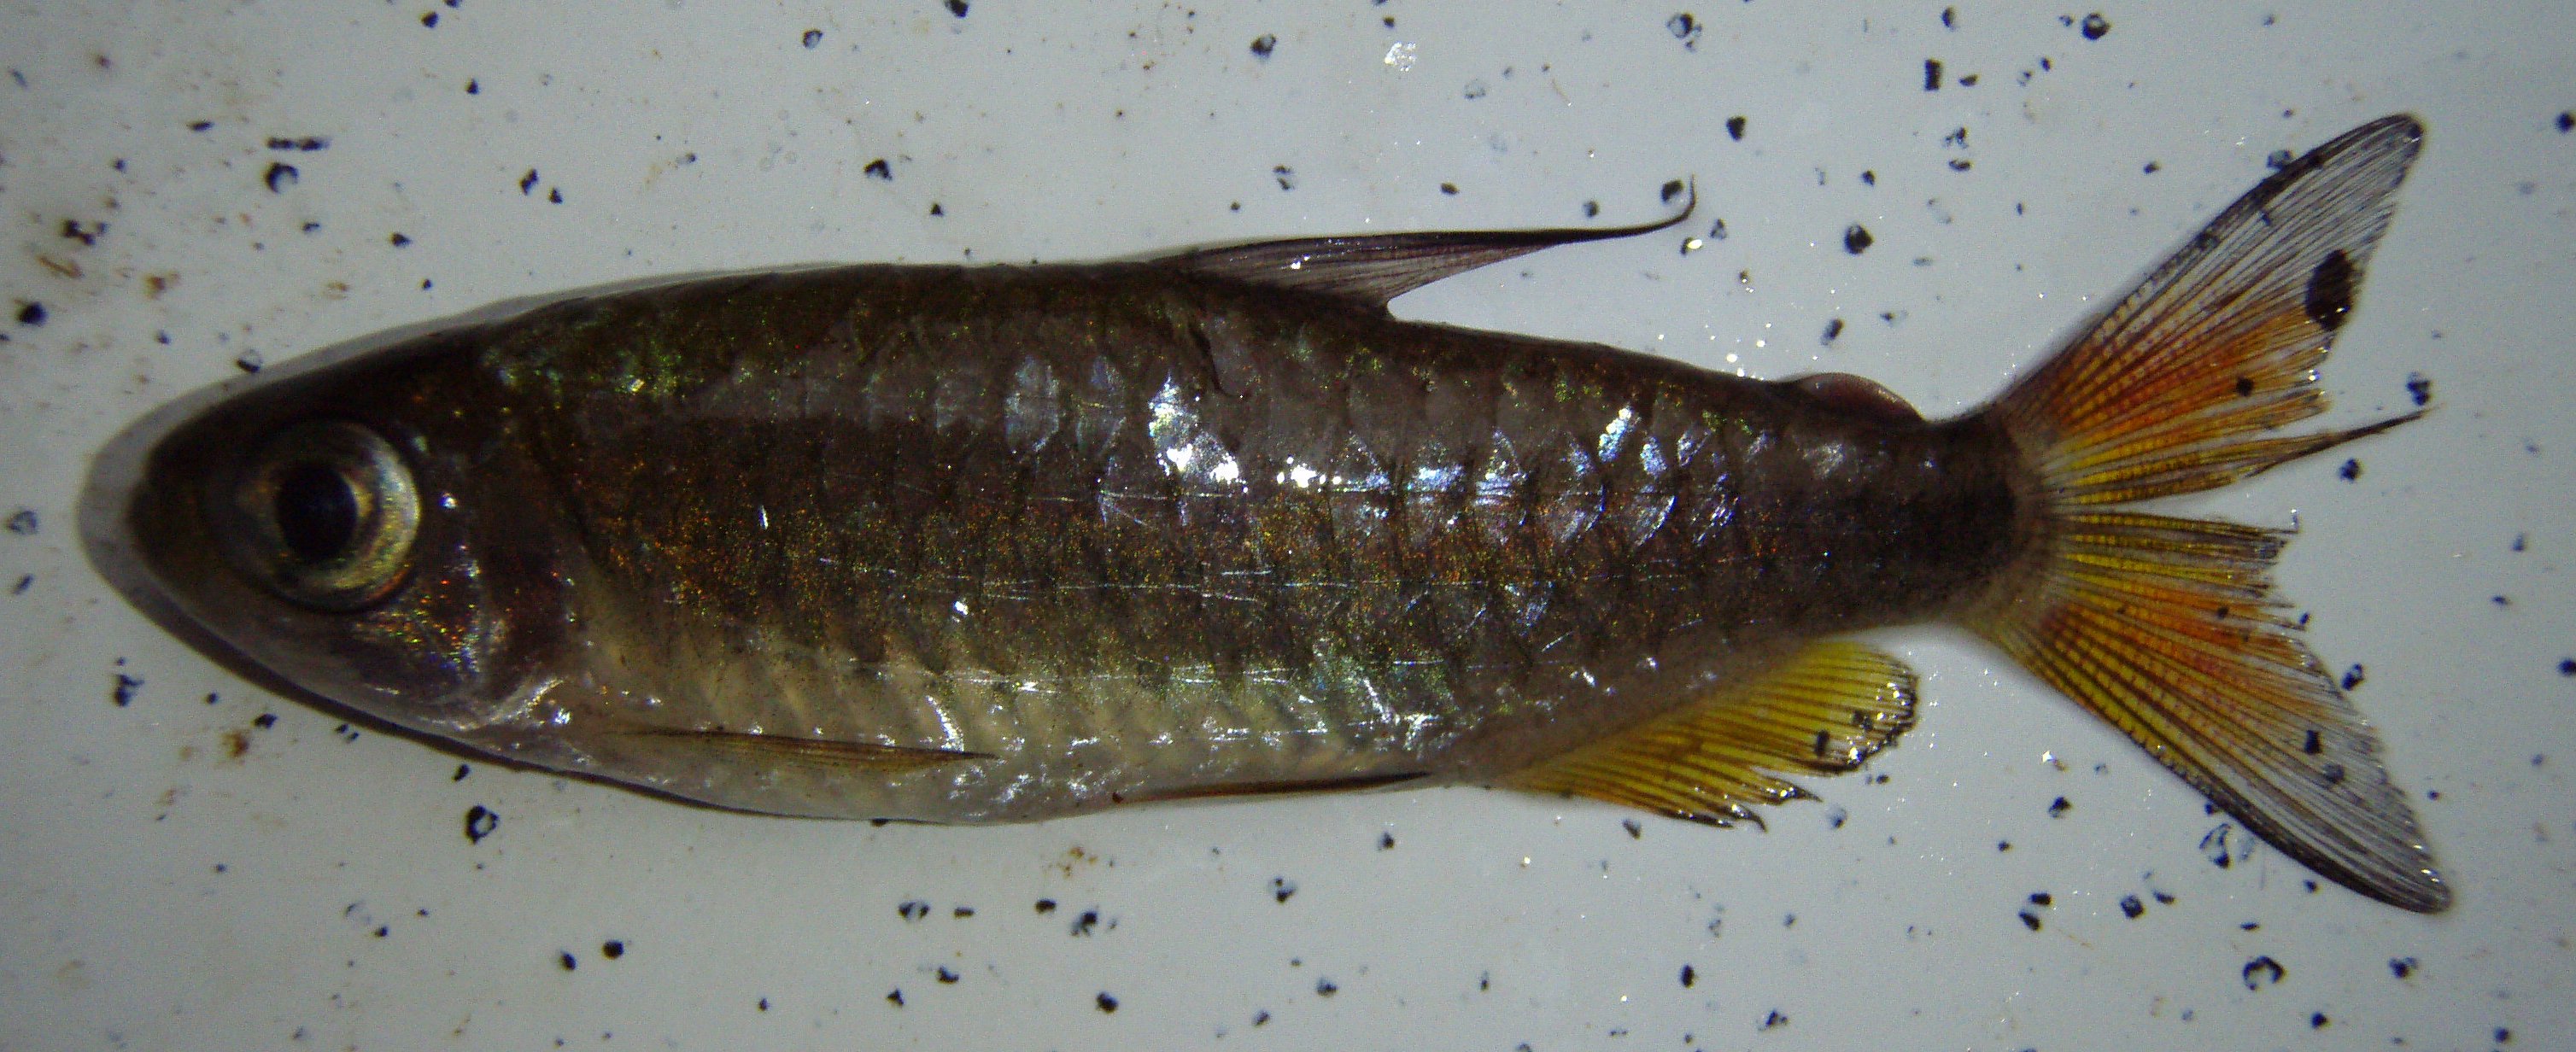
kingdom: Animalia
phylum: Chordata
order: Characiformes
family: Alestidae
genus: Phenacogrammus
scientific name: Phenacogrammus
